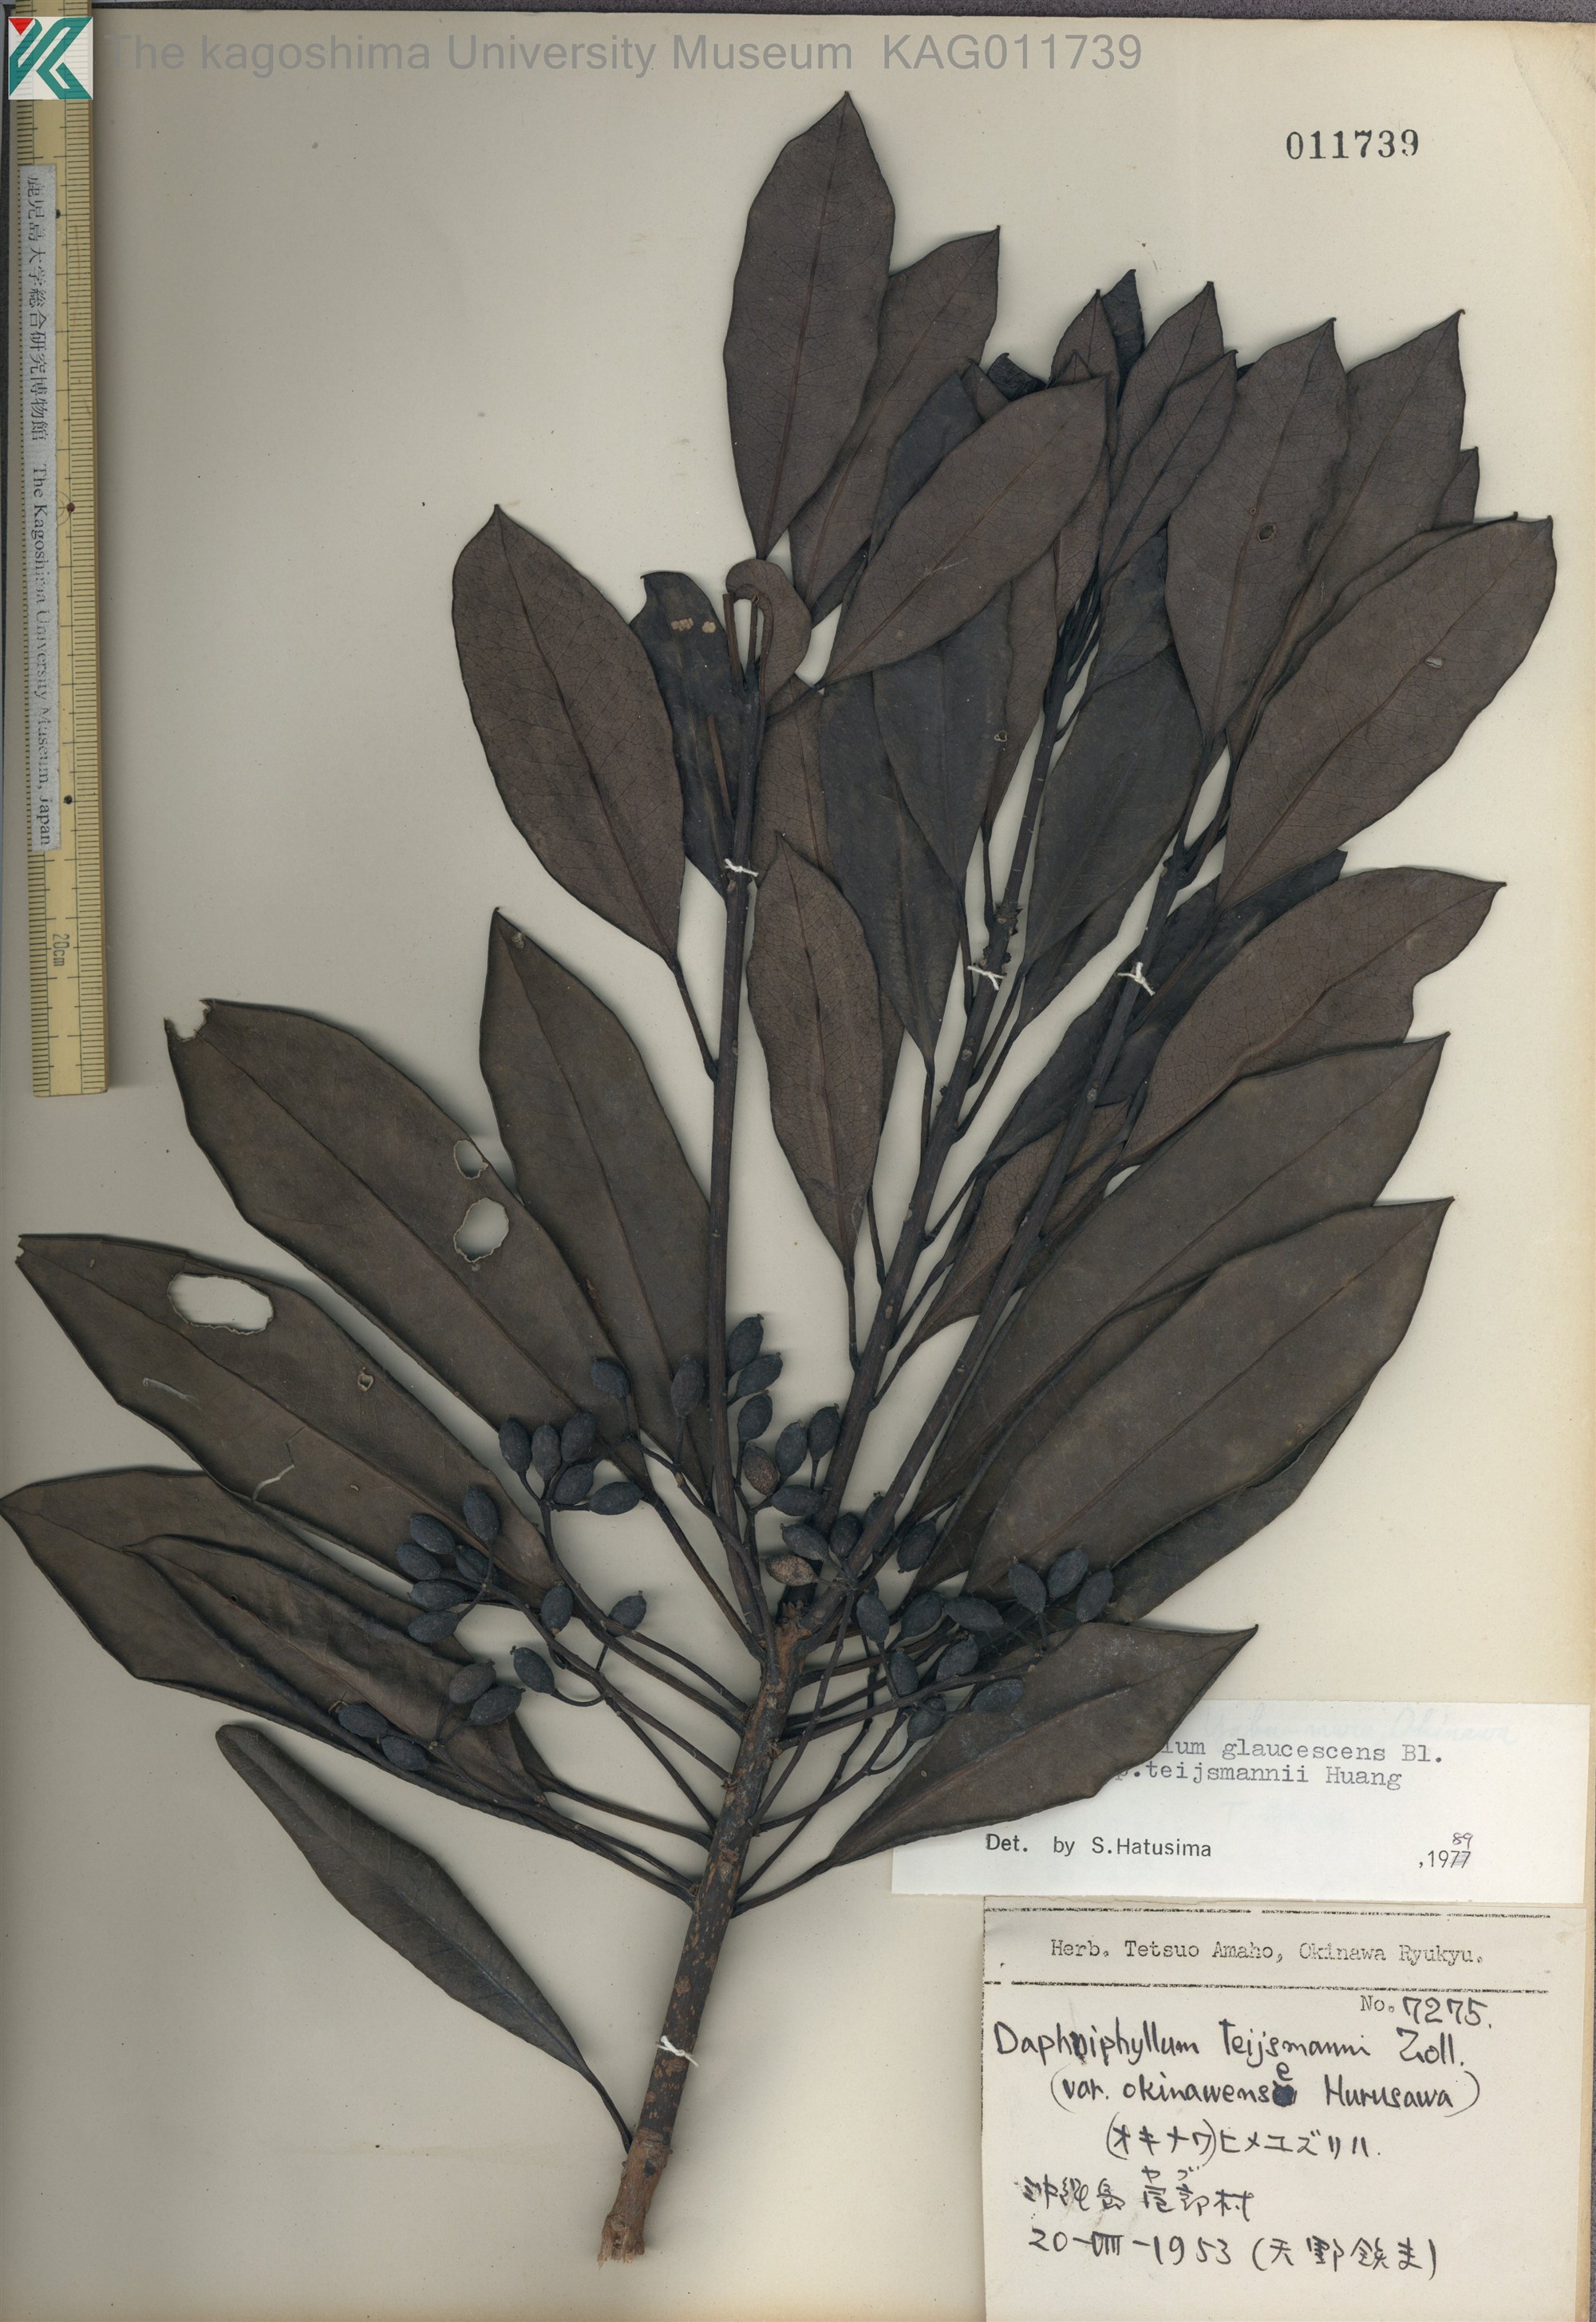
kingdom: Plantae
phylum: Tracheophyta
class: Magnoliopsida
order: Saxifragales
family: Daphniphyllaceae
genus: Daphniphyllum
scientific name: Daphniphyllum teijsmannii
